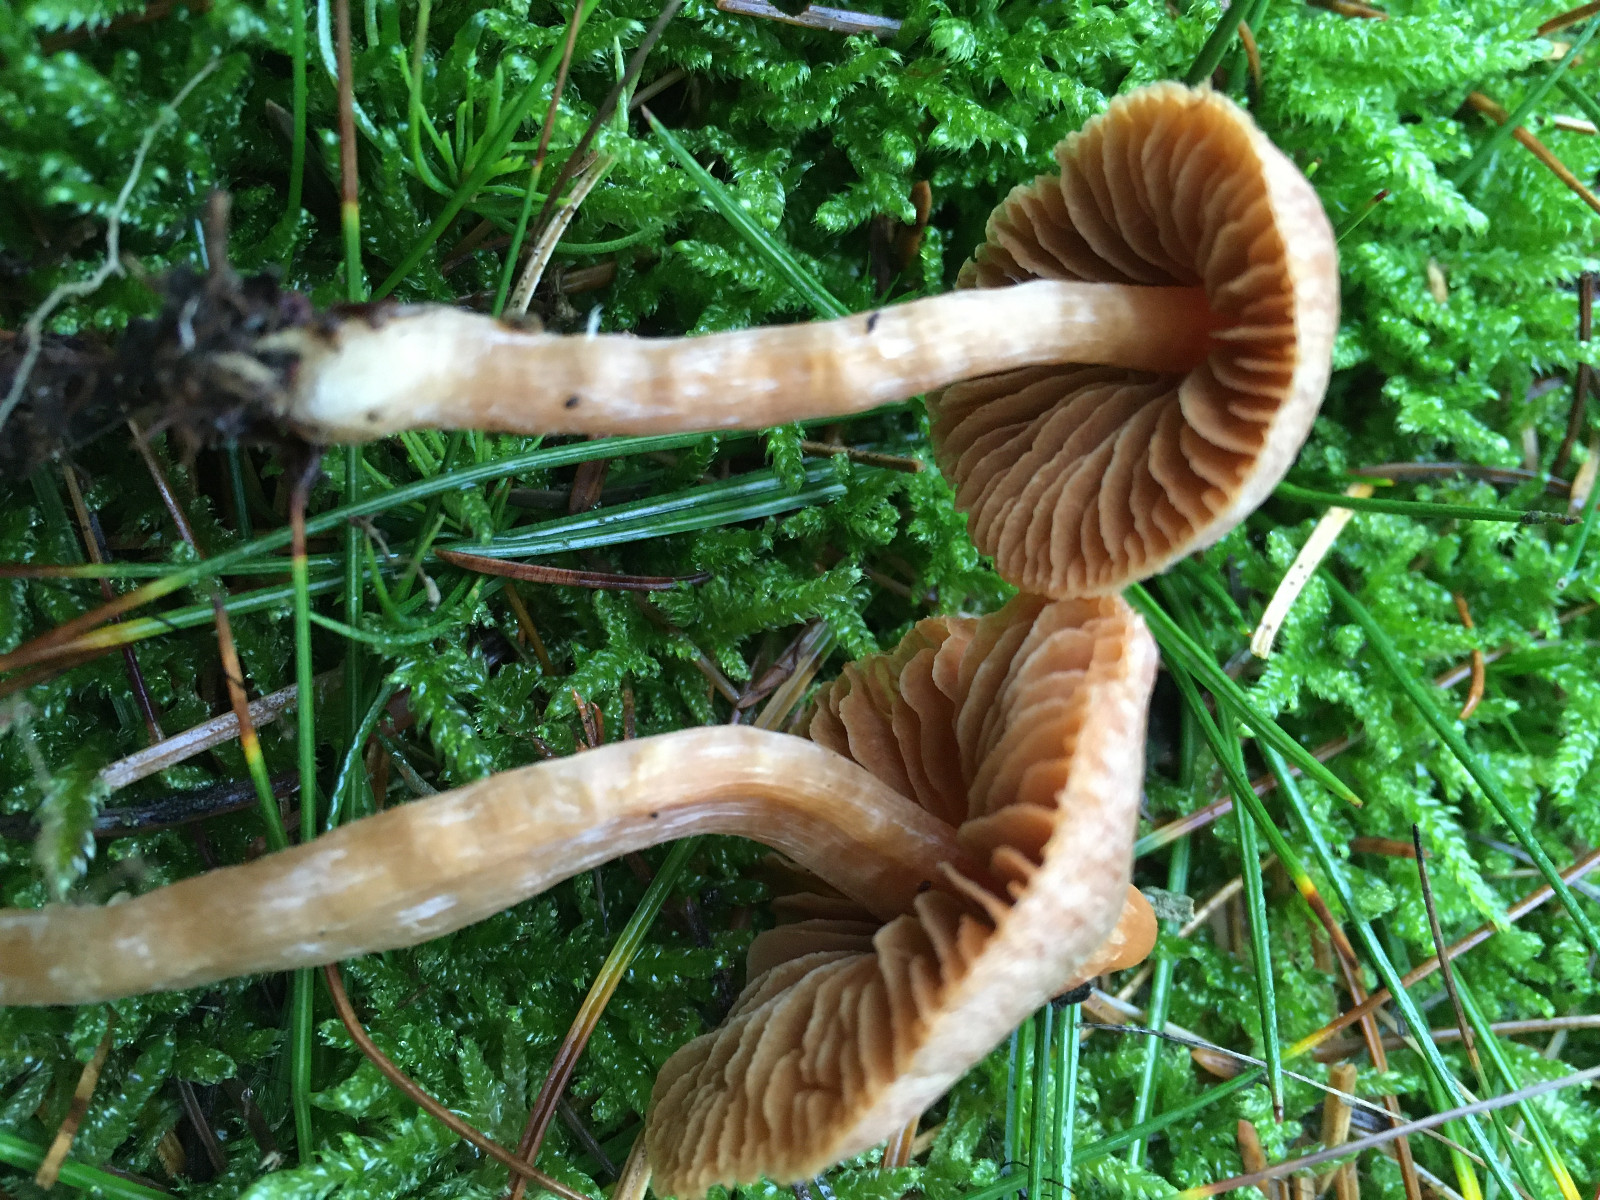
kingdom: Fungi
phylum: Basidiomycota
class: Agaricomycetes
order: Agaricales
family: Cortinariaceae
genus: Cortinarius
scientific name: Cortinarius
